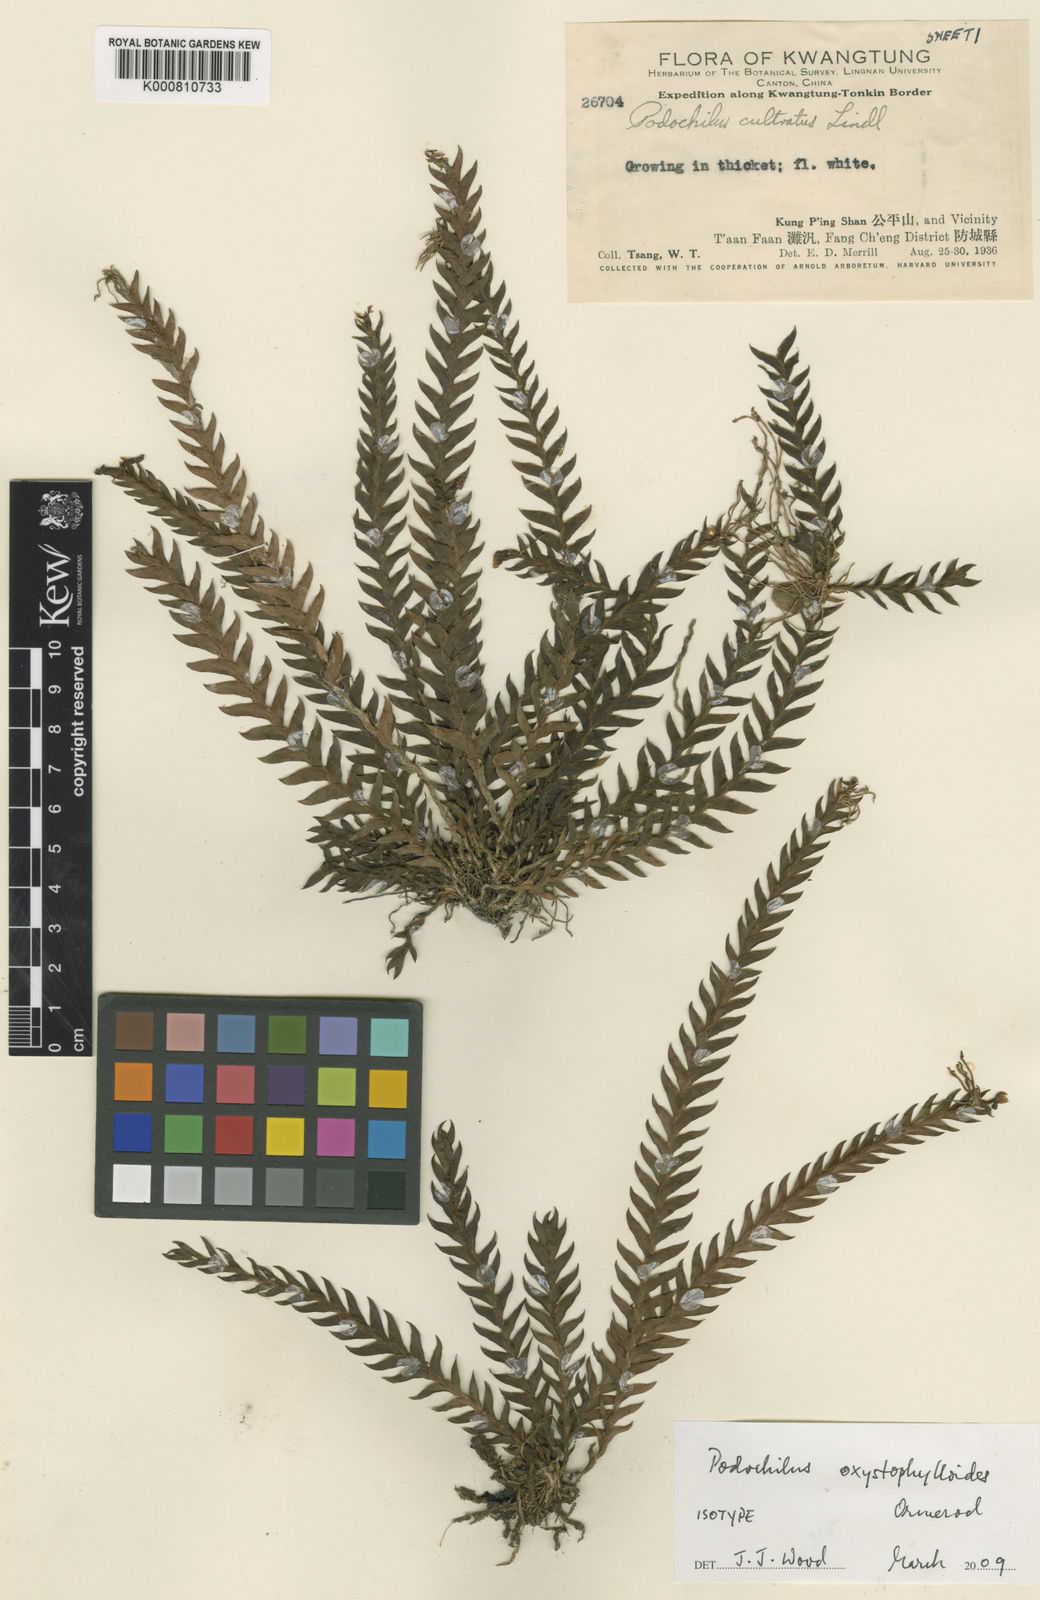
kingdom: Animalia
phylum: Arthropoda
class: Insecta
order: Coleoptera
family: Scarabaeidae
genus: Cyphochilus
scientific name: Cyphochilus
